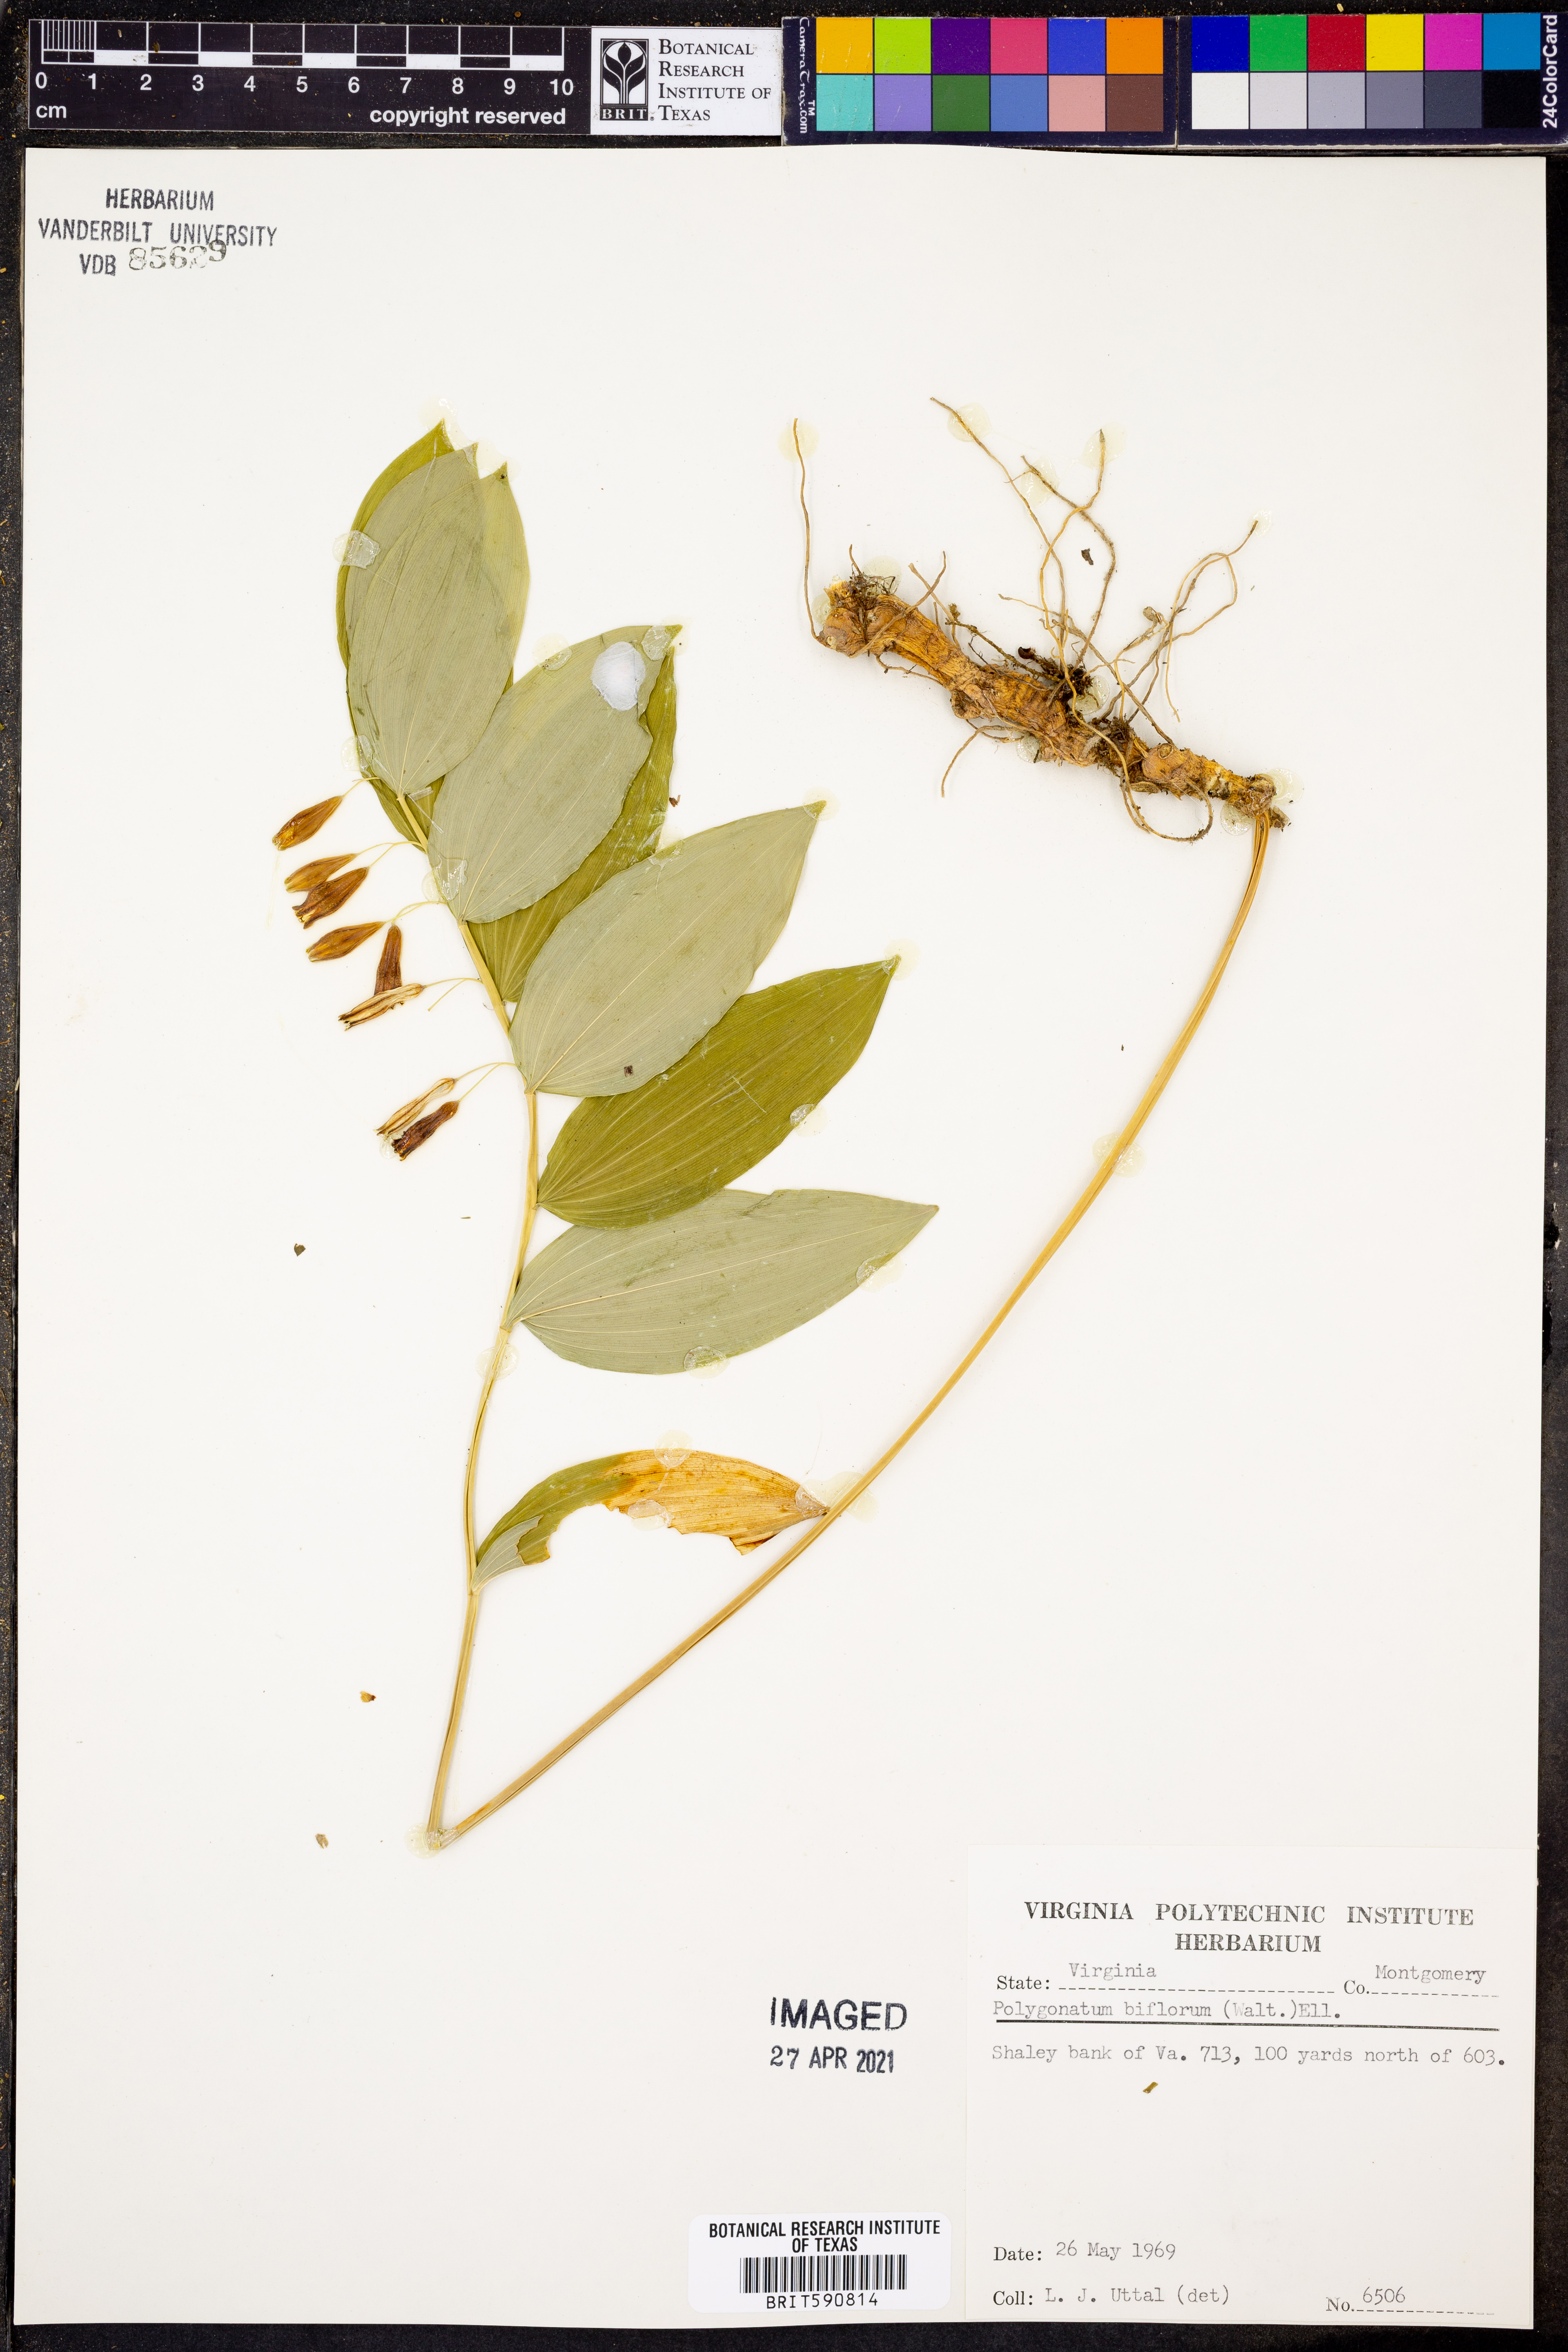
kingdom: Plantae
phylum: Tracheophyta
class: Liliopsida
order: Asparagales
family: Asparagaceae
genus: Polygonatum
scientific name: Polygonatum biflorum
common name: American solomon's-seal
